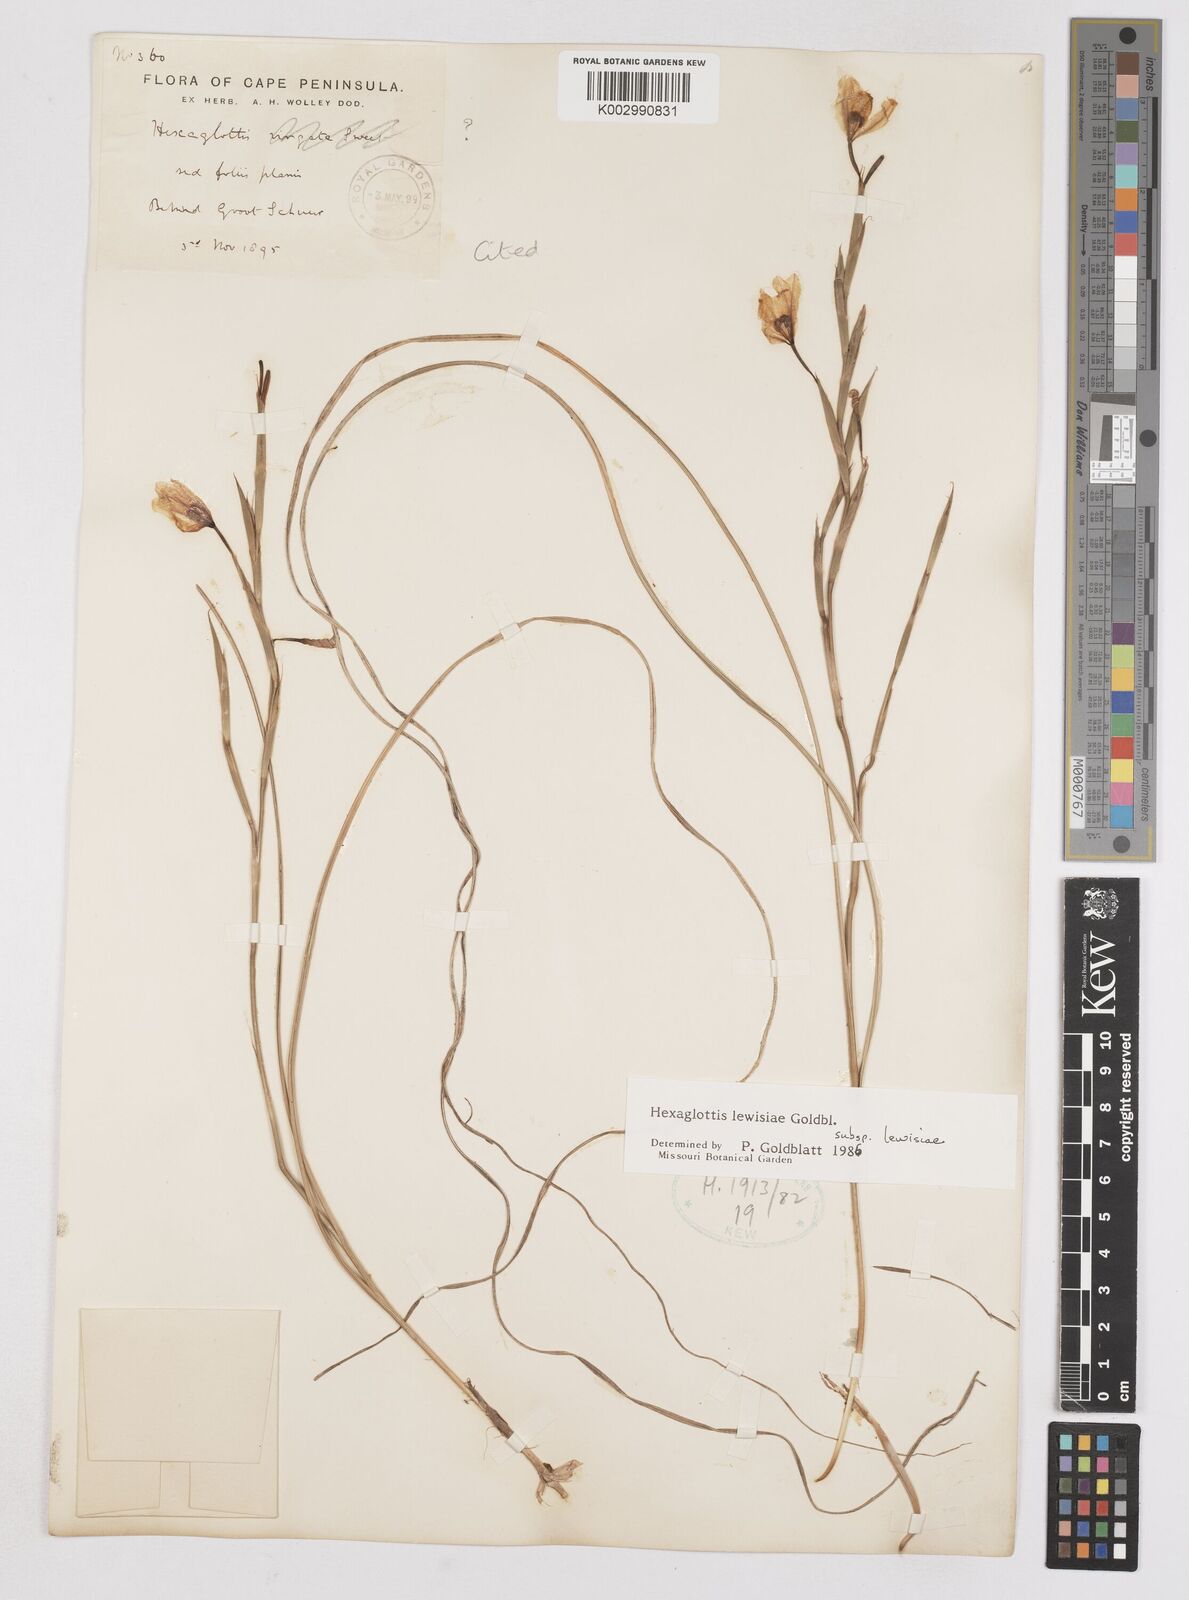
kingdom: Plantae
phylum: Tracheophyta
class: Liliopsida
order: Asparagales
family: Iridaceae
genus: Moraea
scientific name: Moraea lewisiae
